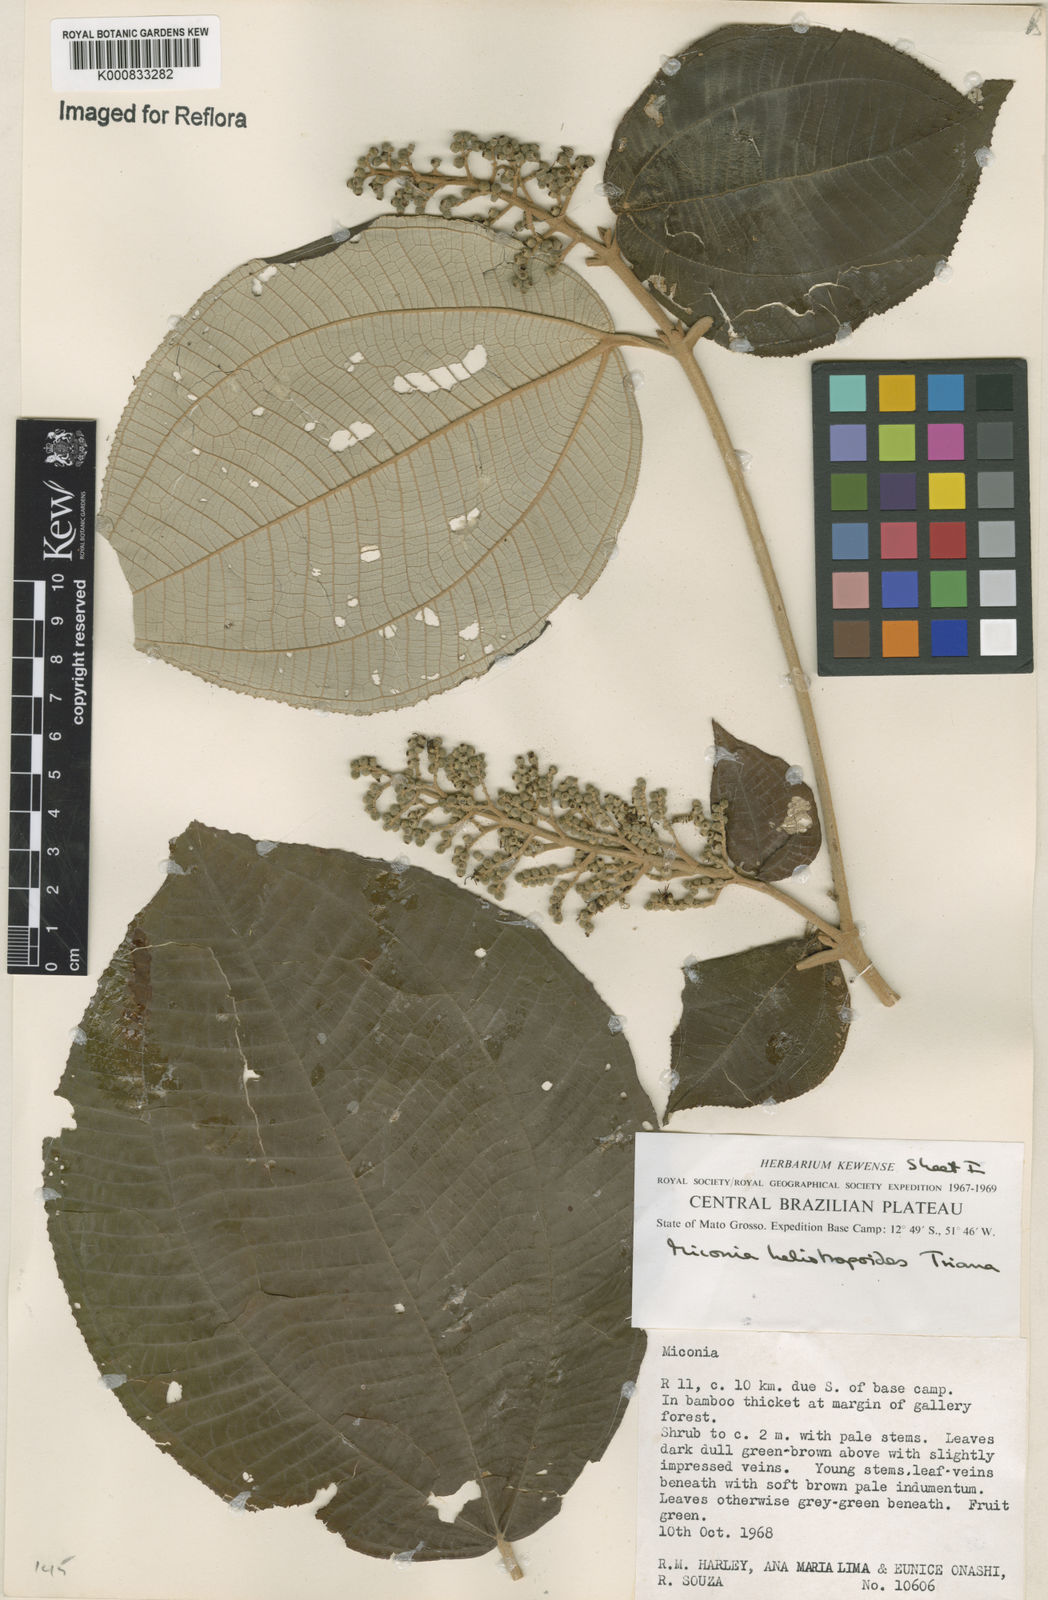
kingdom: Plantae
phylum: Tracheophyta
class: Magnoliopsida
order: Myrtales
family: Melastomataceae
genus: Miconia
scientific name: Miconia heliotropoides
